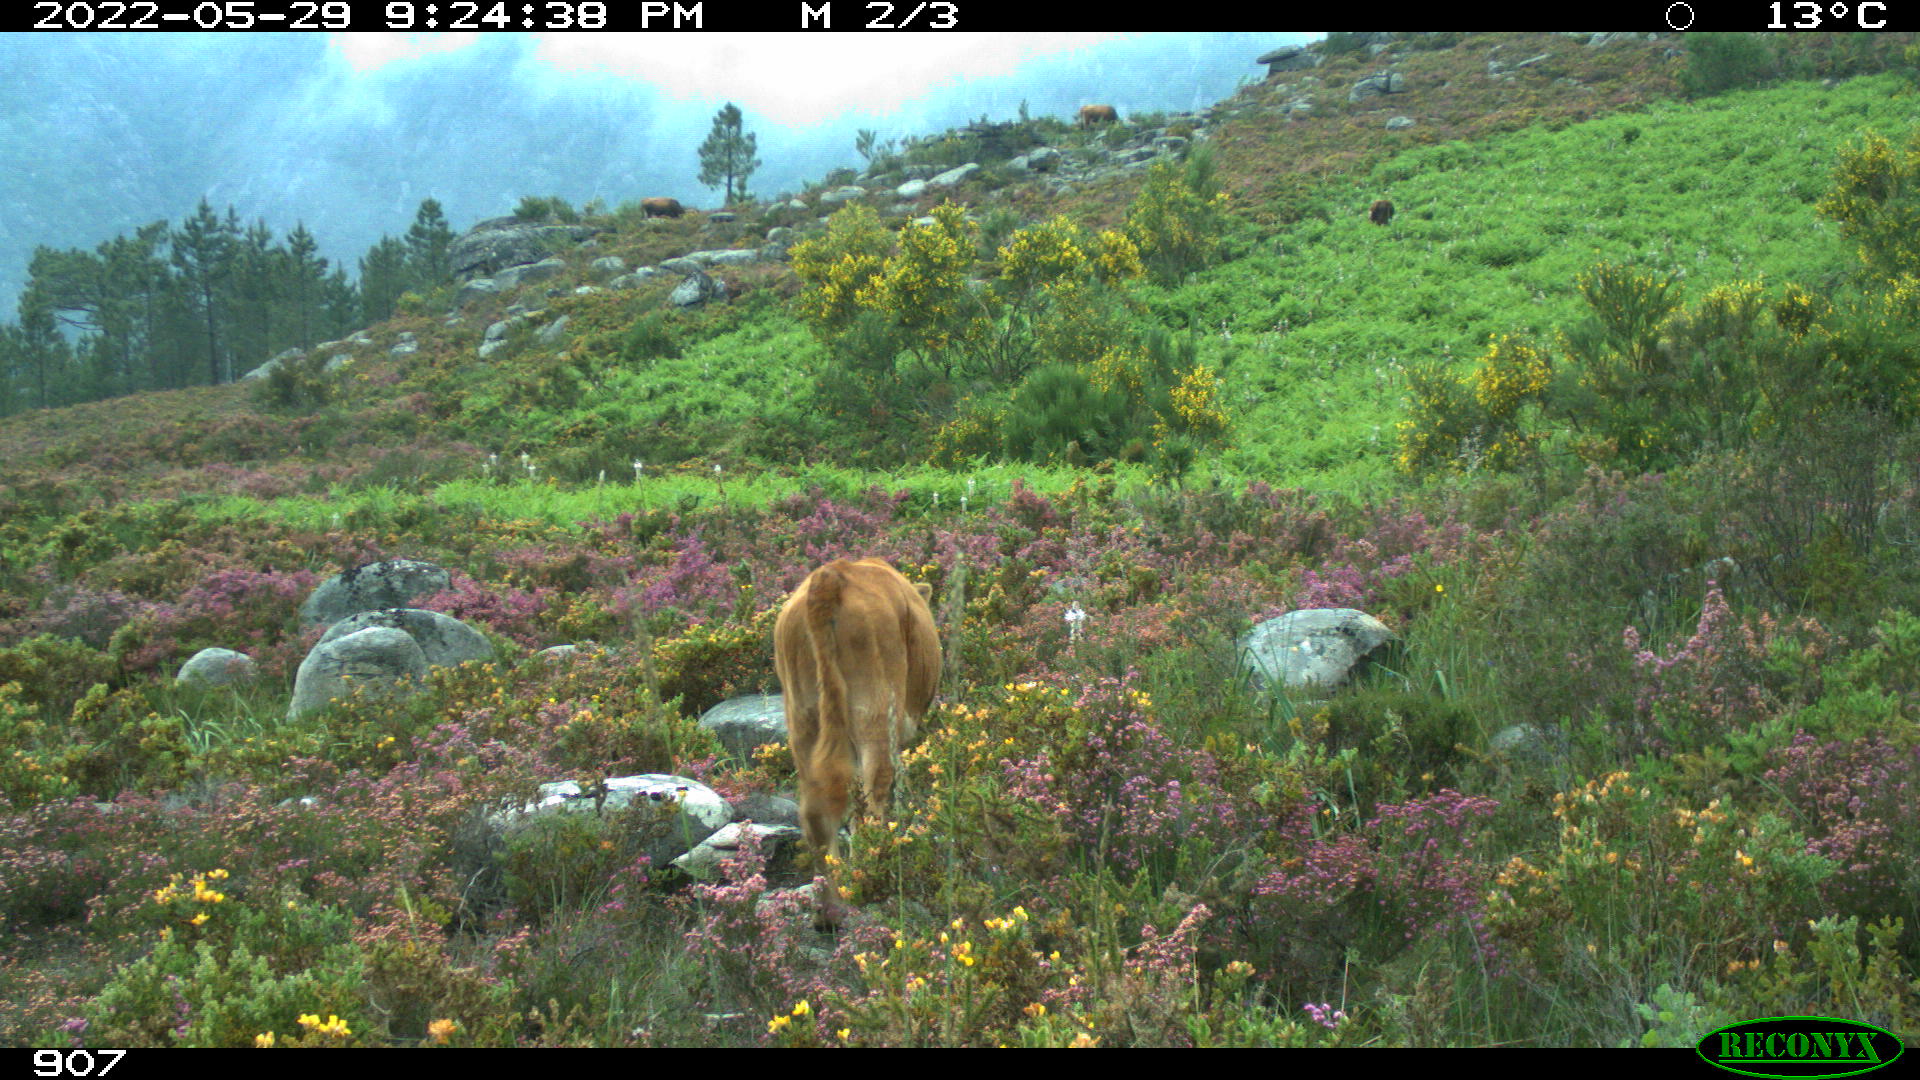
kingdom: Animalia
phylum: Chordata
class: Mammalia
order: Artiodactyla
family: Bovidae
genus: Bos
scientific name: Bos taurus
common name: Domesticated cattle
